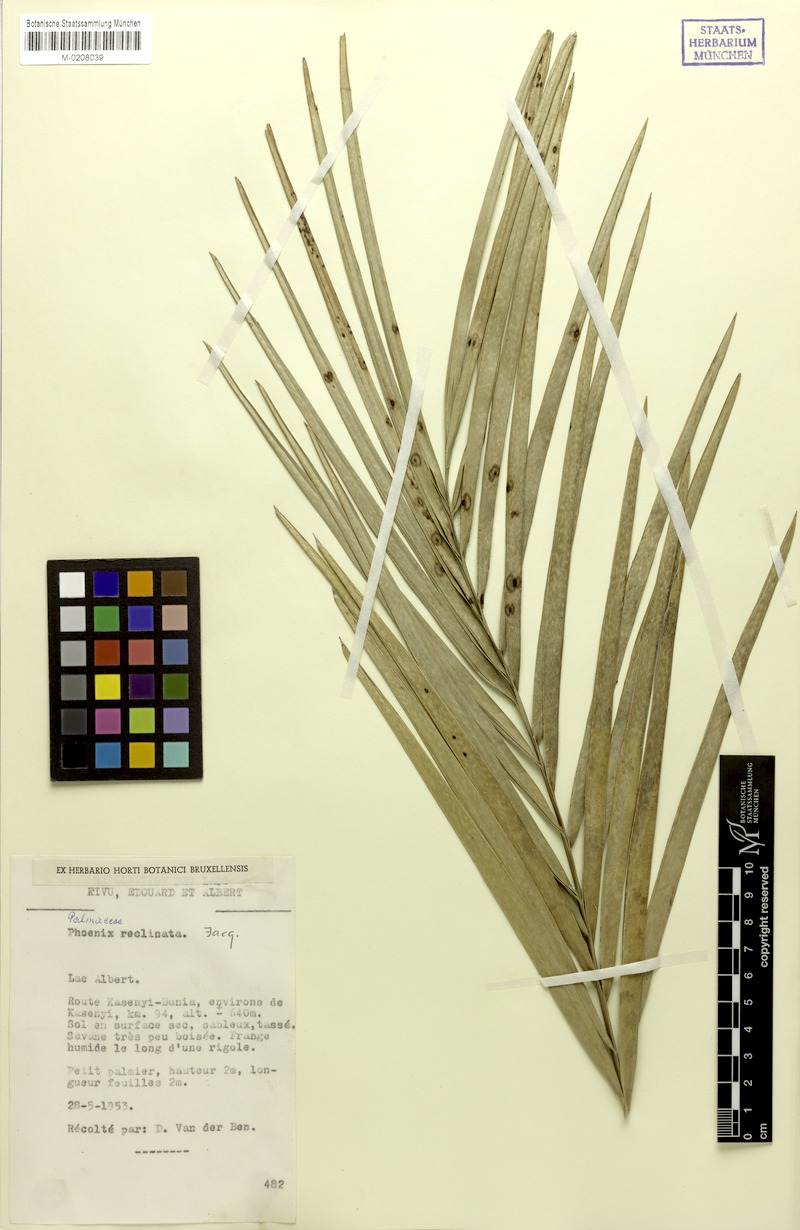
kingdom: Plantae
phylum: Tracheophyta
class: Liliopsida
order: Arecales
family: Arecaceae
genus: Phoenix
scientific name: Phoenix reclinata
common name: Senegal date palm
